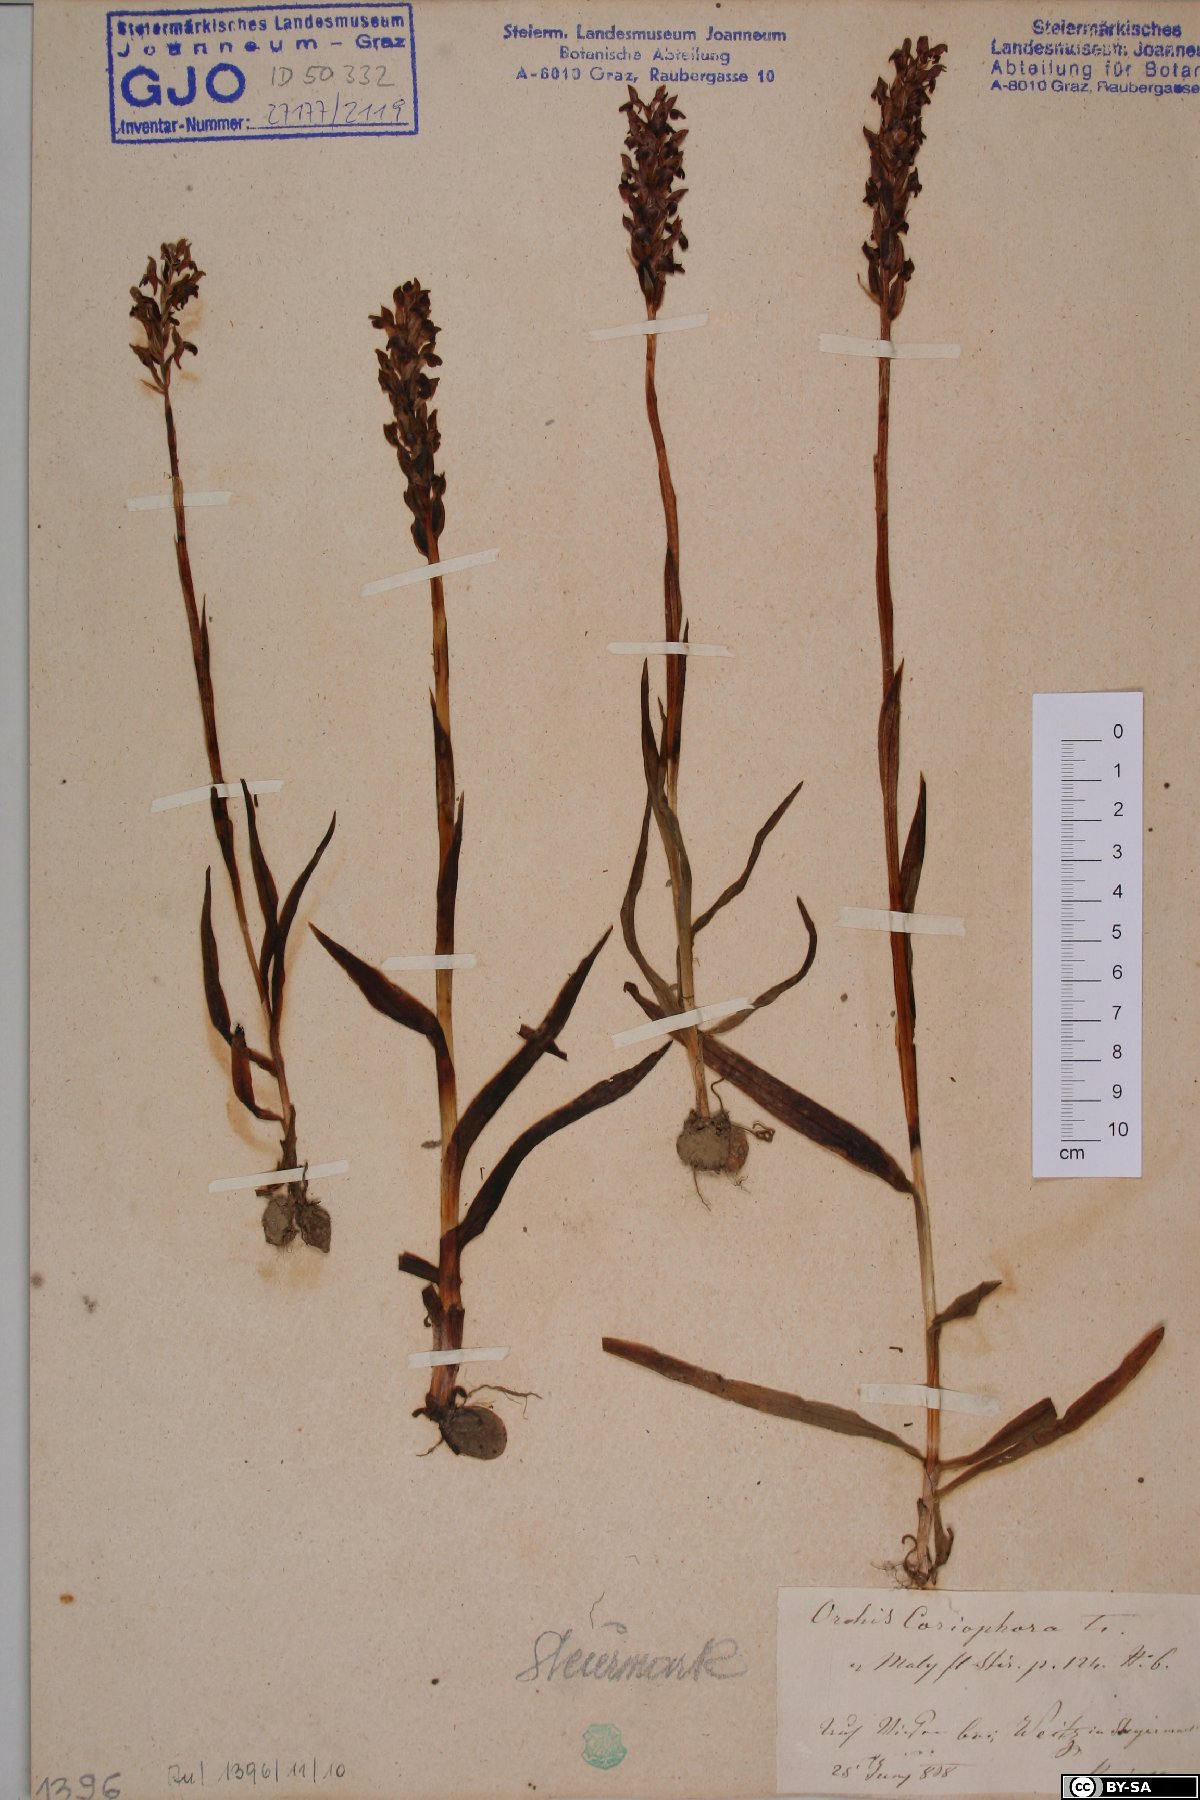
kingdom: Plantae
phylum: Tracheophyta
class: Liliopsida
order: Asparagales
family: Orchidaceae
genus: Anacamptis
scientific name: Anacamptis coriophora
